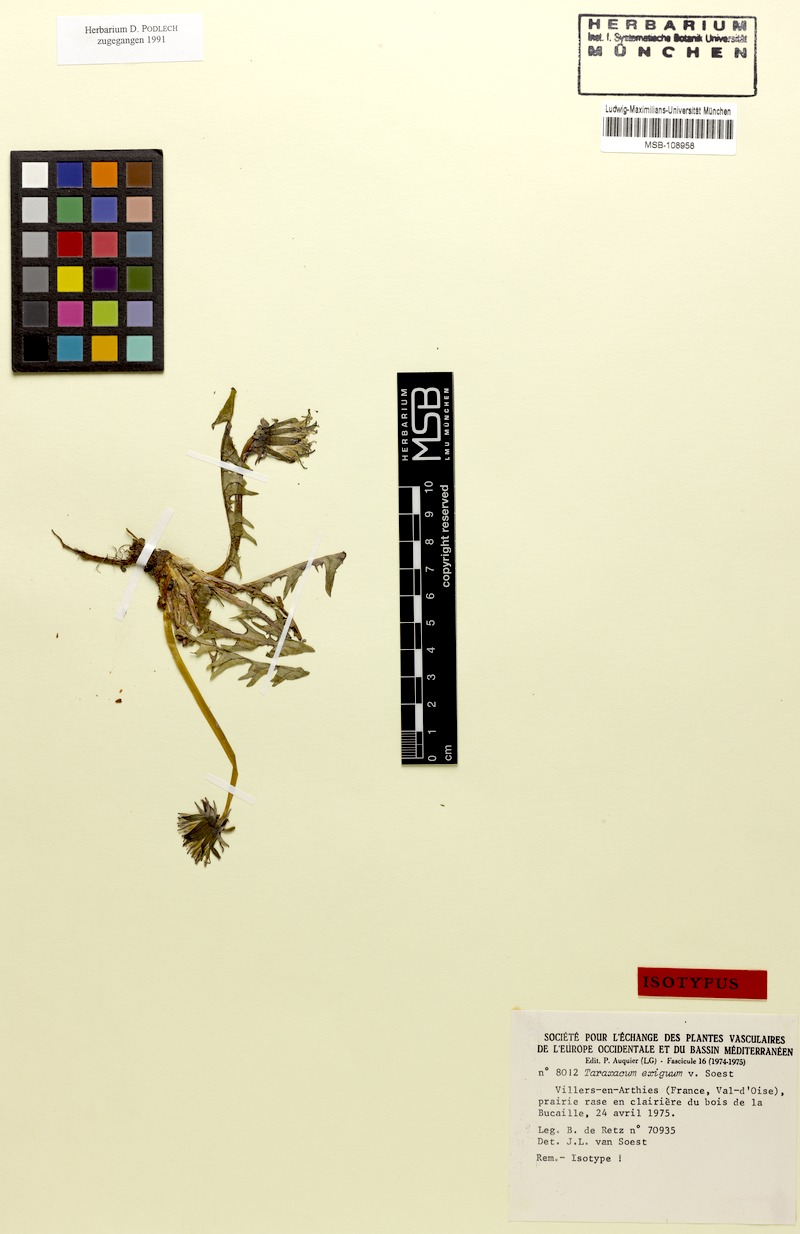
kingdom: Plantae
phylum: Tracheophyta
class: Magnoliopsida
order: Asterales
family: Asteraceae
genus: Taraxacum
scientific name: Taraxacum exiguum
